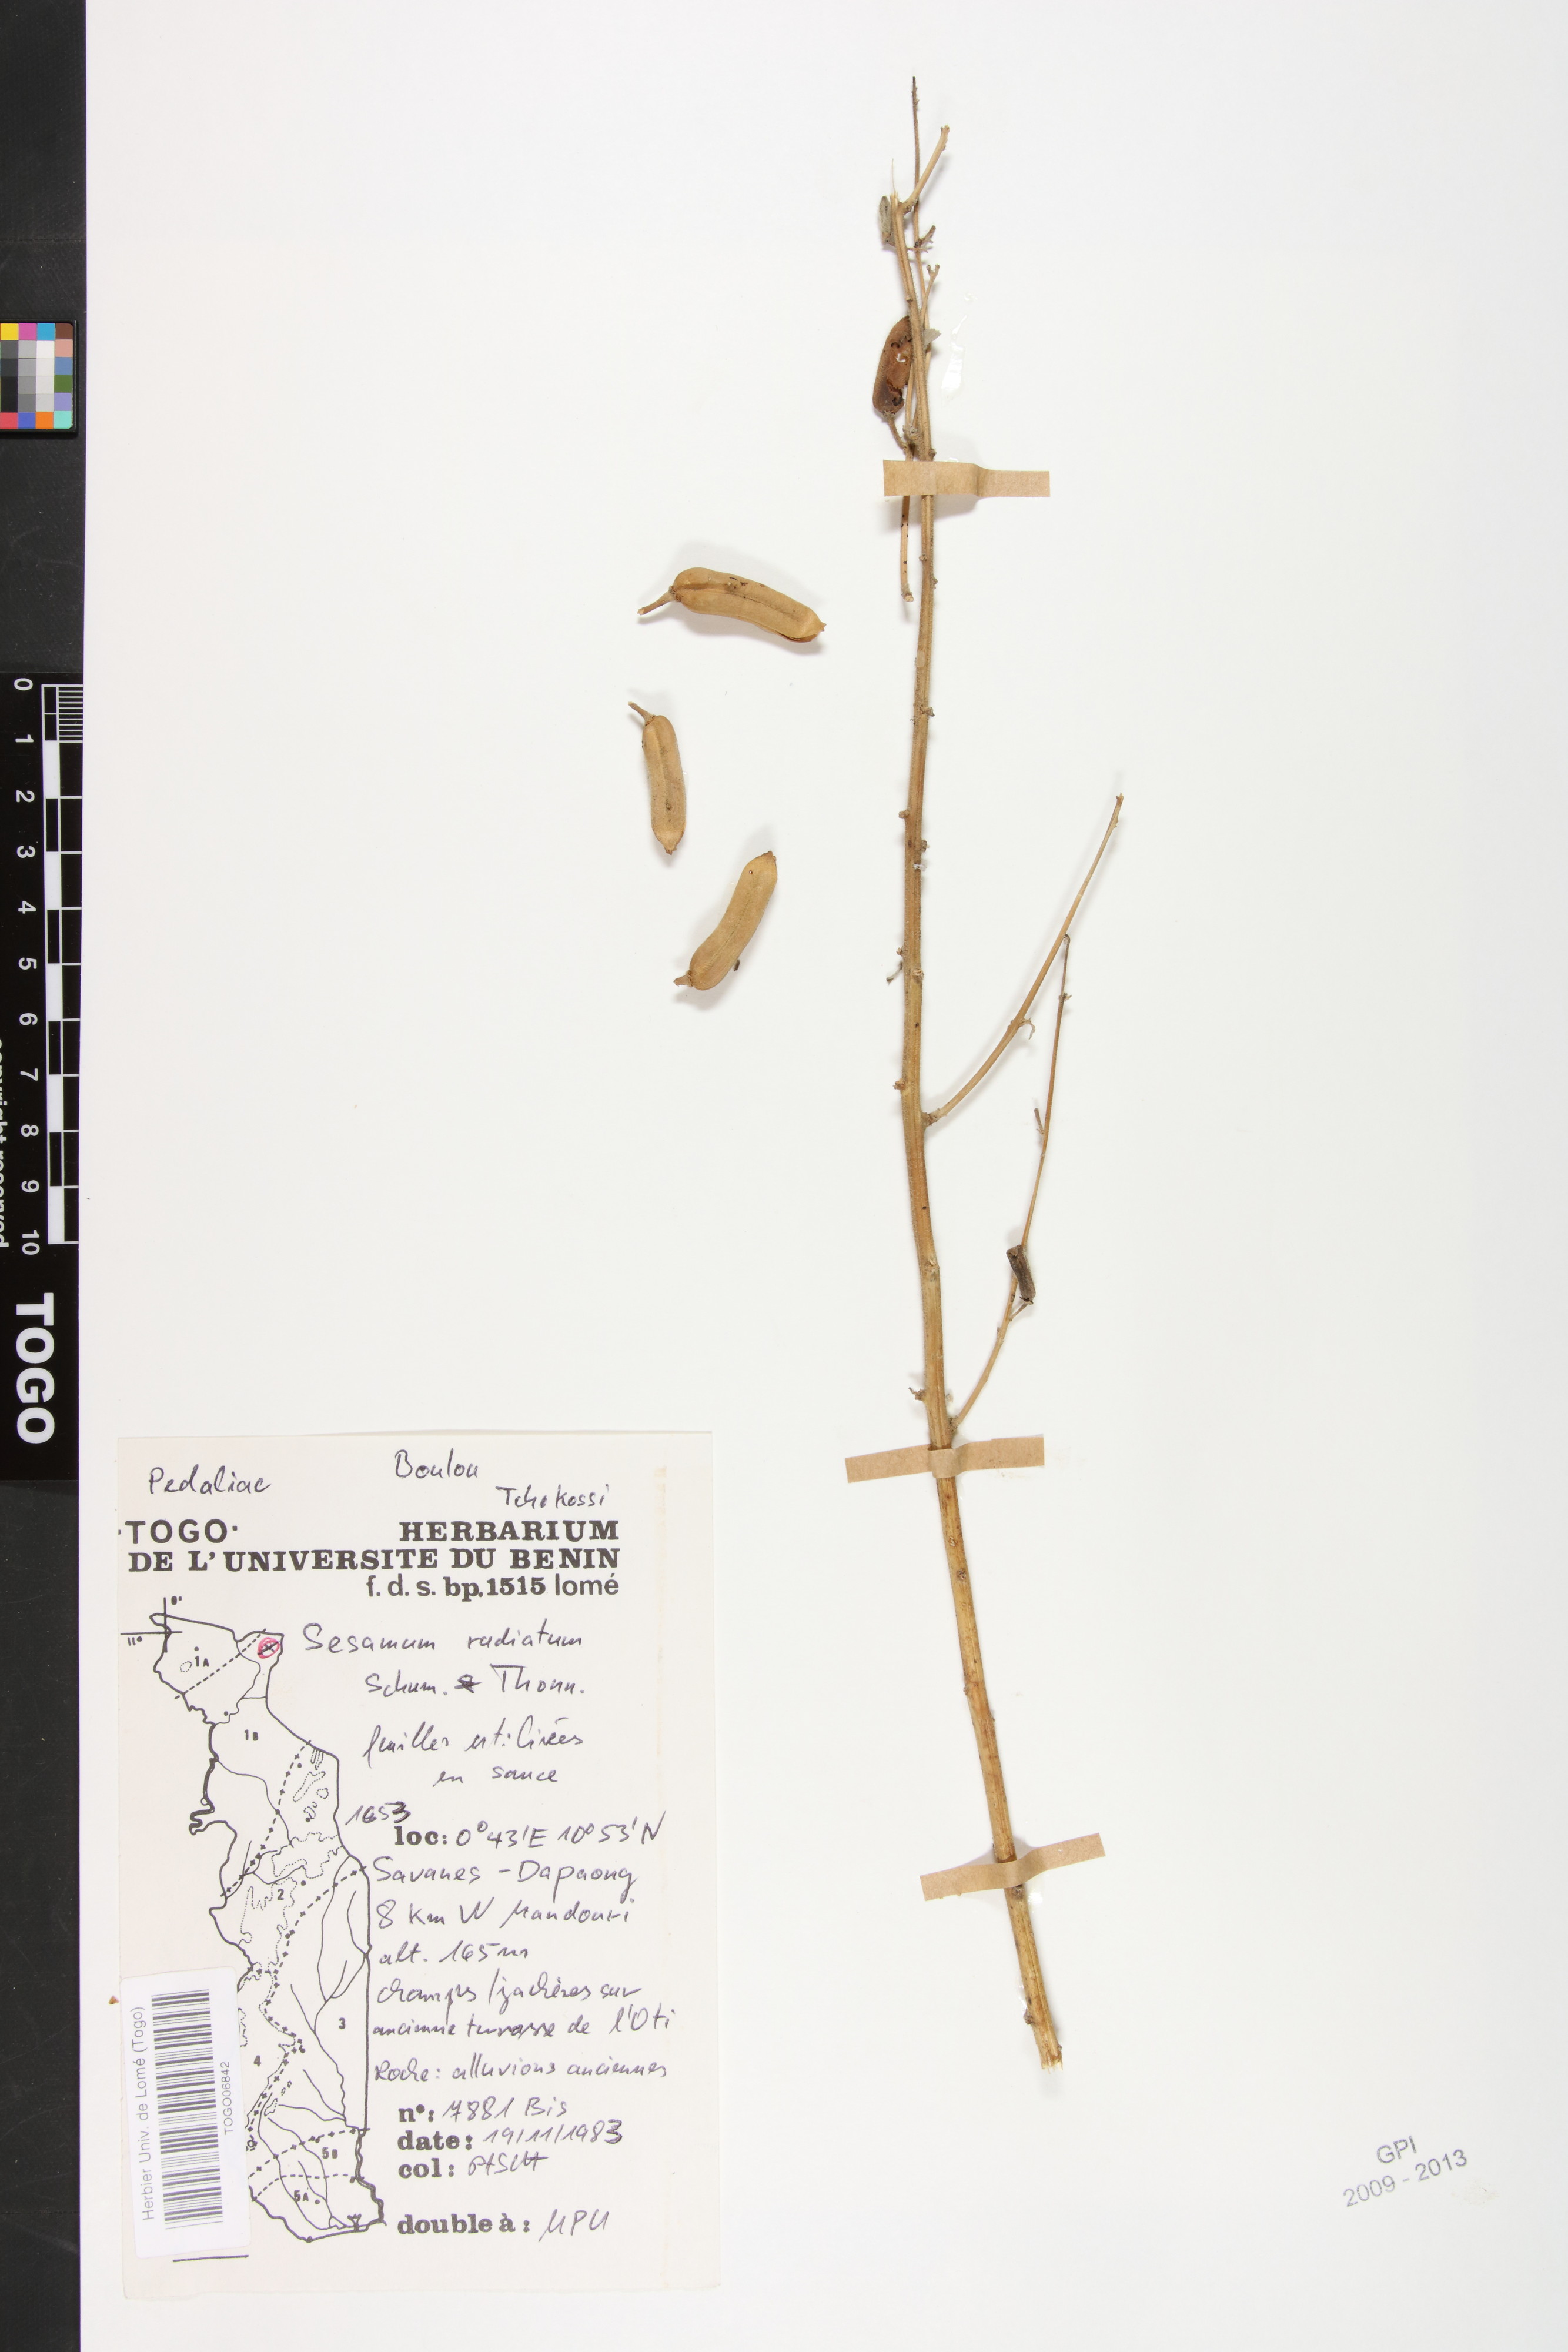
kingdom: Plantae
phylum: Tracheophyta
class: Magnoliopsida
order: Lamiales
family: Pedaliaceae
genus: Sesamum
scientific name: Sesamum radiatum
